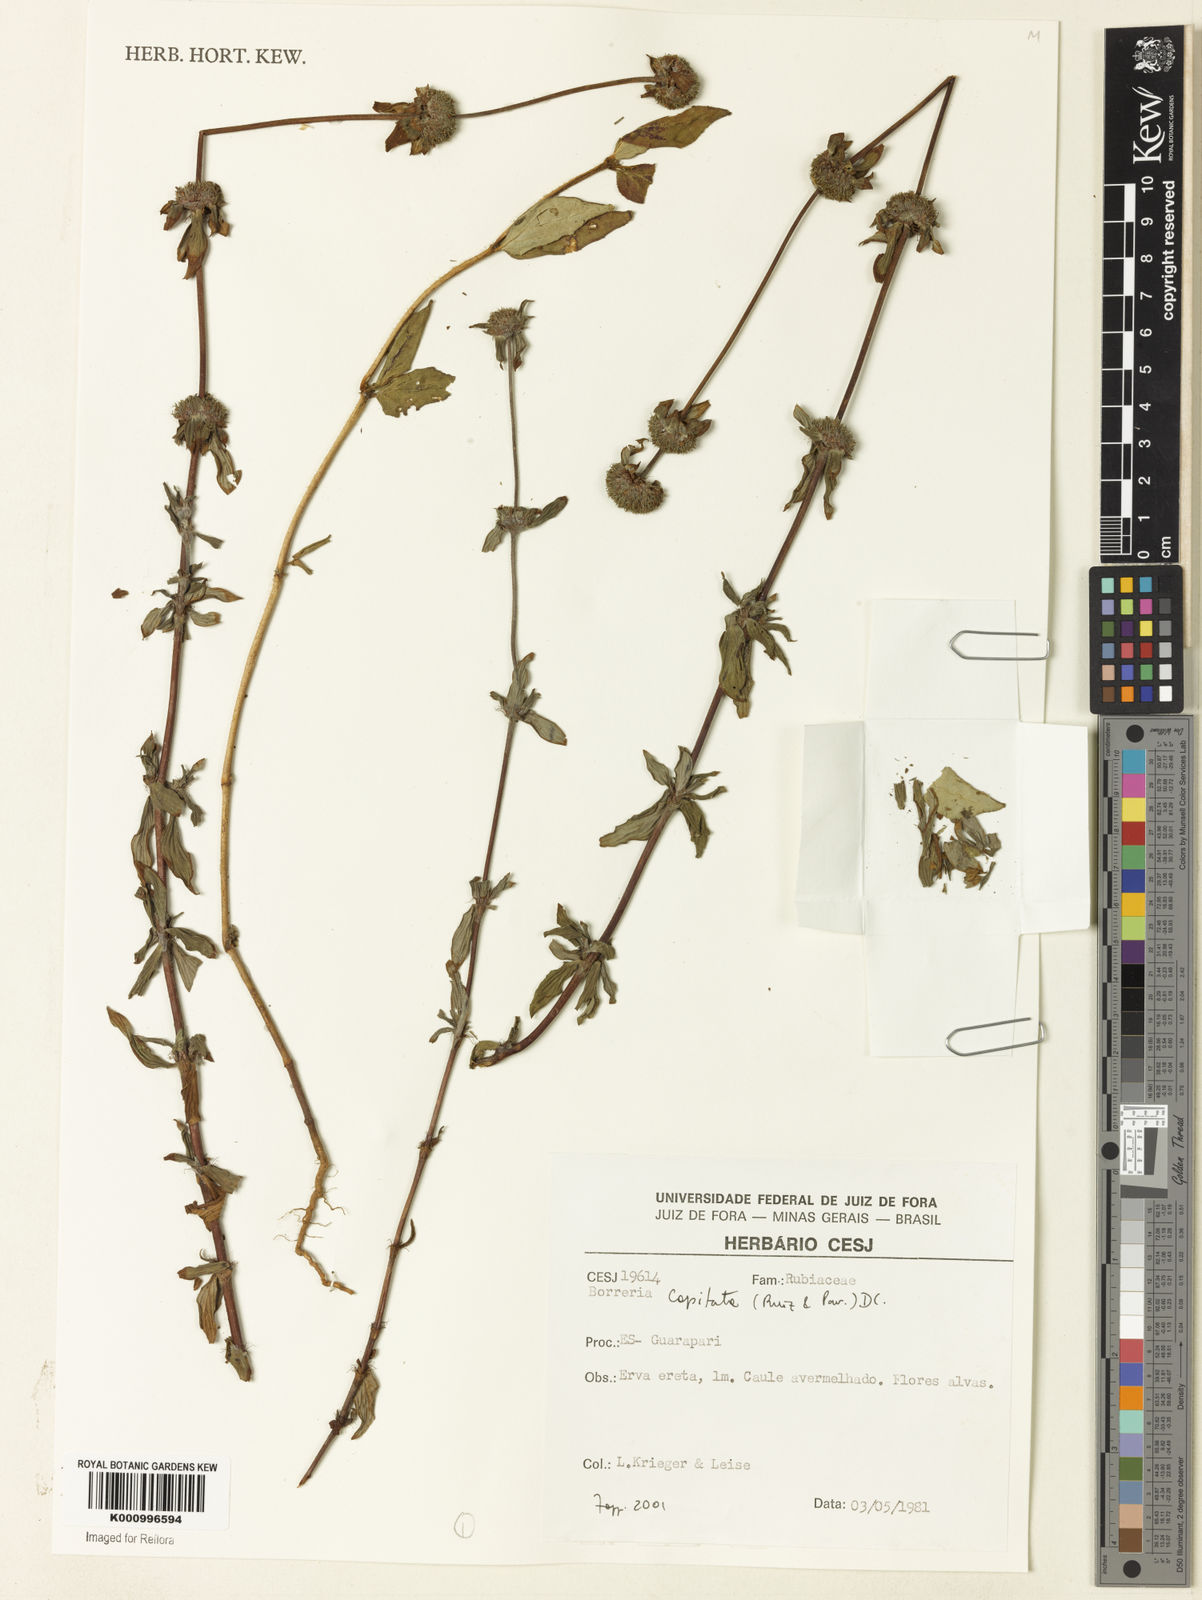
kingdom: Plantae
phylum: Tracheophyta
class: Magnoliopsida
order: Gentianales
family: Rubiaceae
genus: Spermacoce
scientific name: Spermacoce capitata
